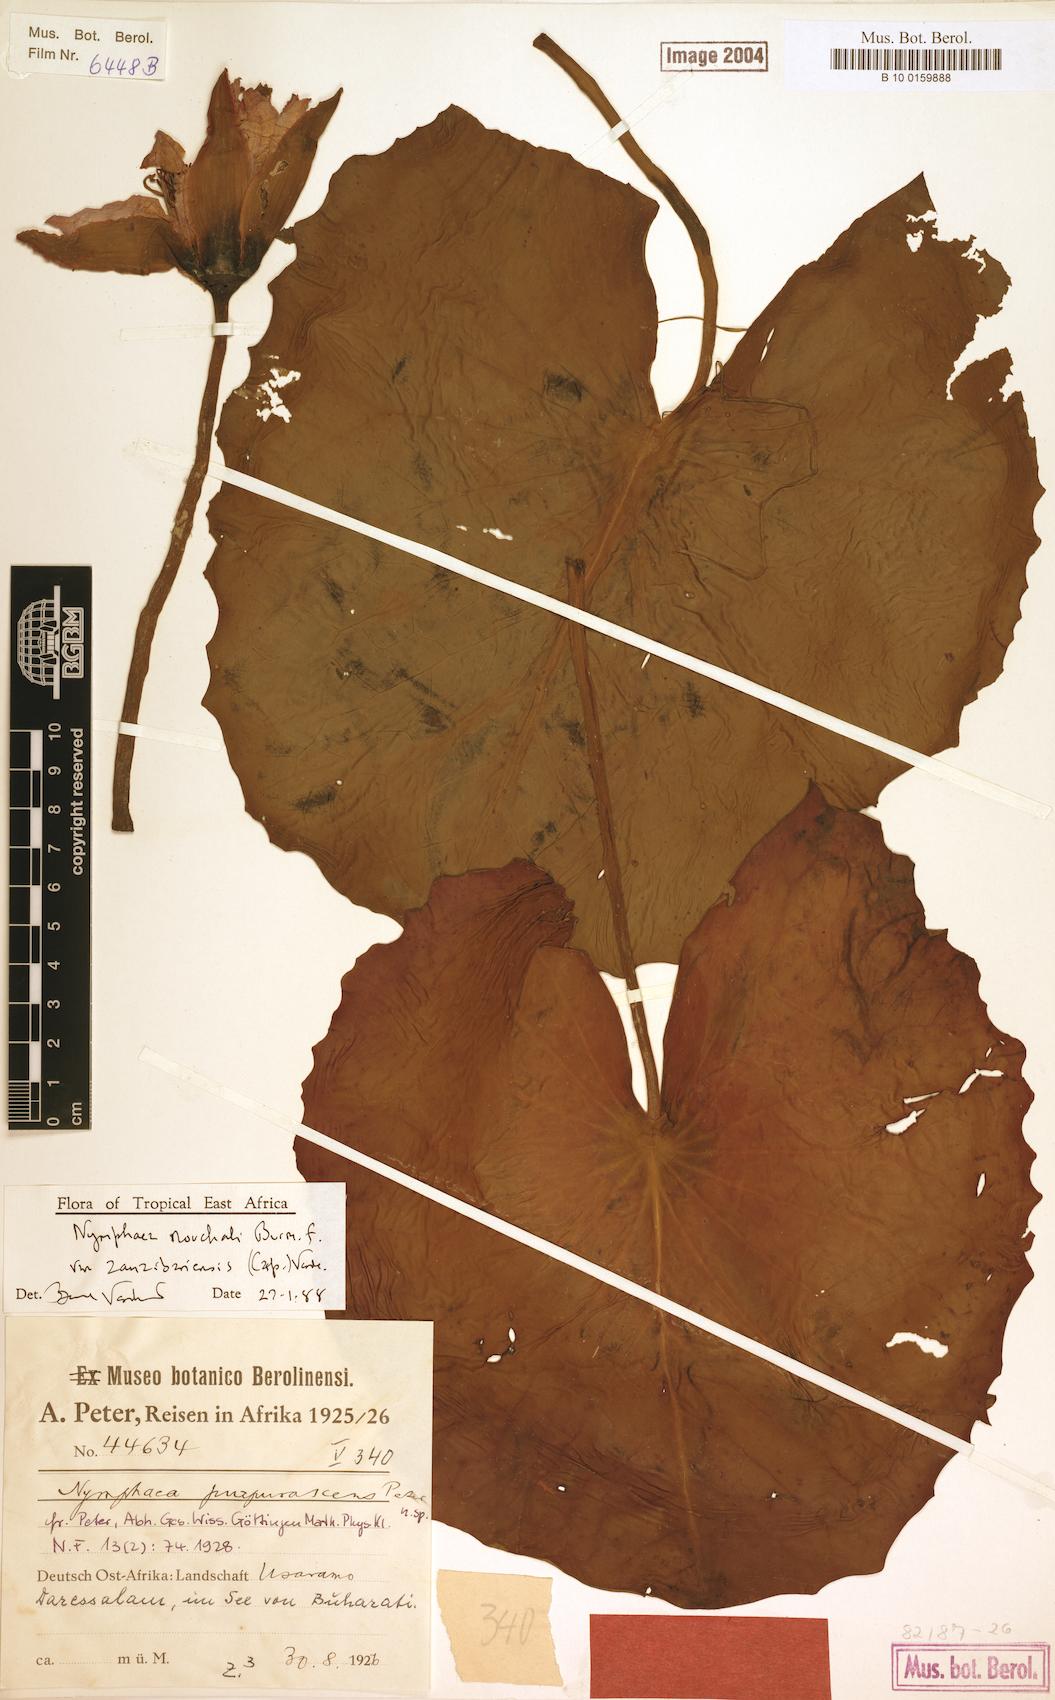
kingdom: Plantae
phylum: Tracheophyta
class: Magnoliopsida
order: Nymphaeales
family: Nymphaeaceae
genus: Nymphaea
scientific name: Nymphaea nouchali
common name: Blue lotus
